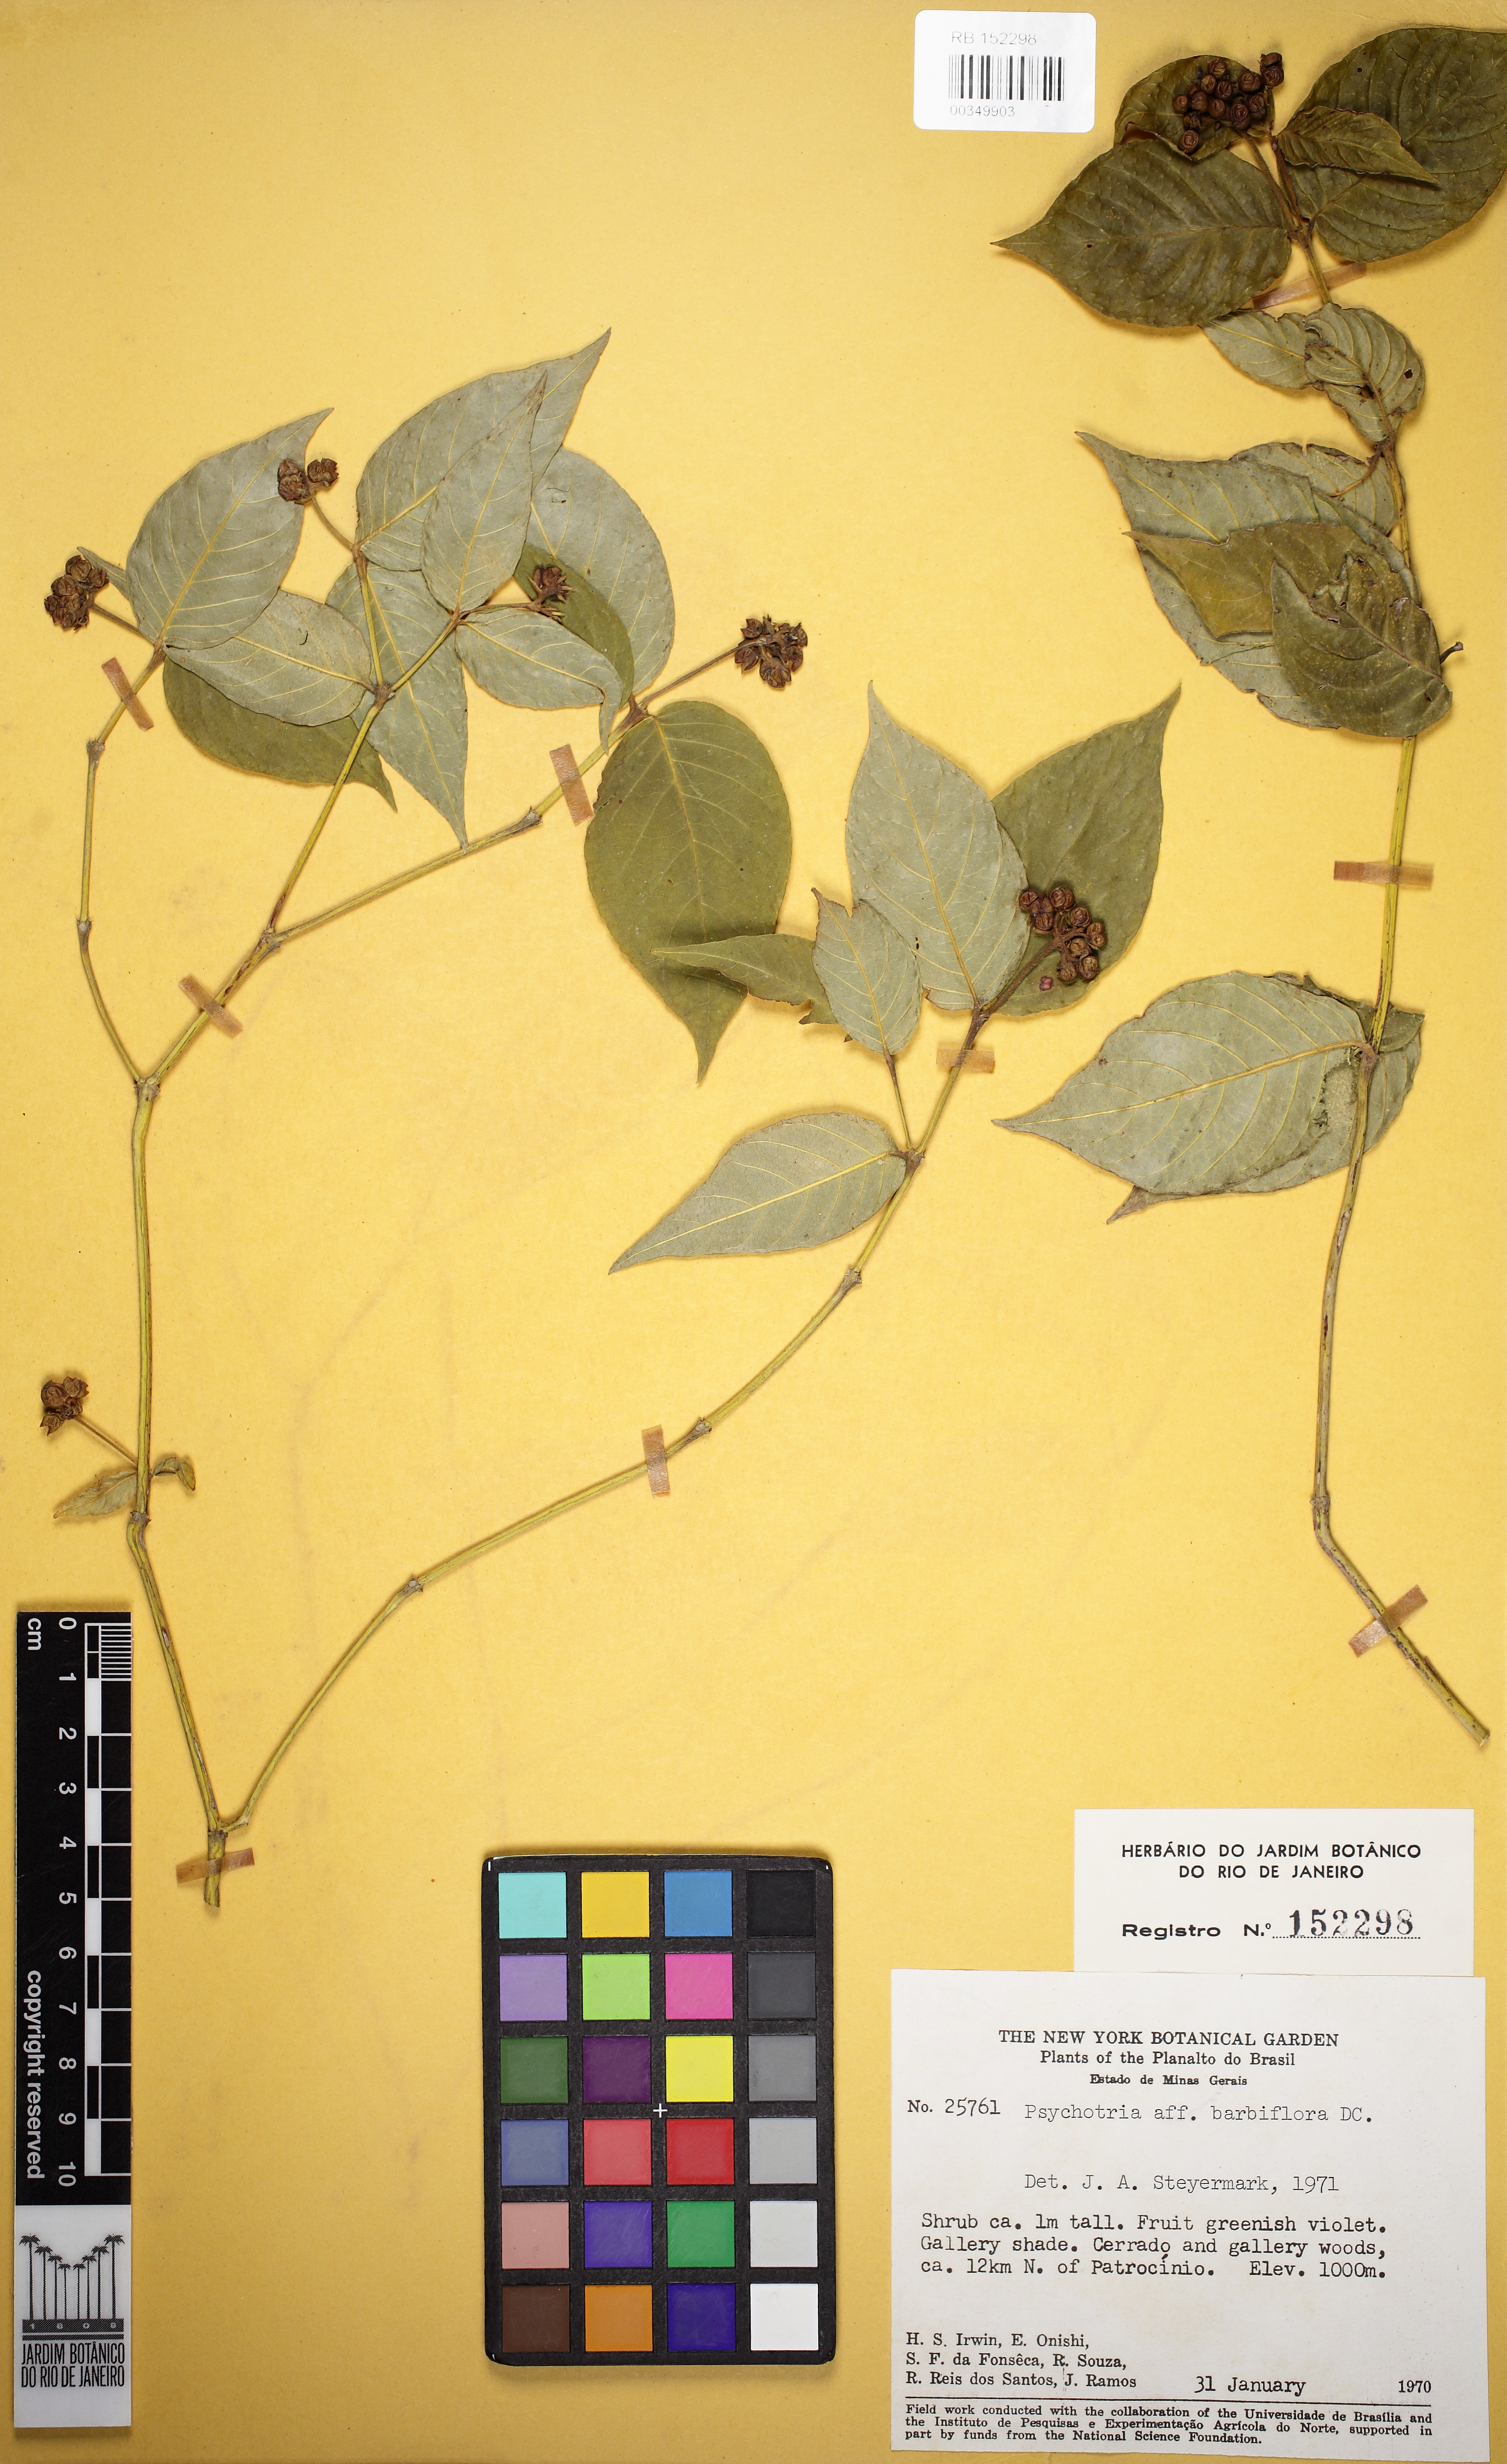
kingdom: Plantae
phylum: Tracheophyta
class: Magnoliopsida
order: Gentianales
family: Rubiaceae
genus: Palicourea
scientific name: Palicourea hoffmannseggiana
